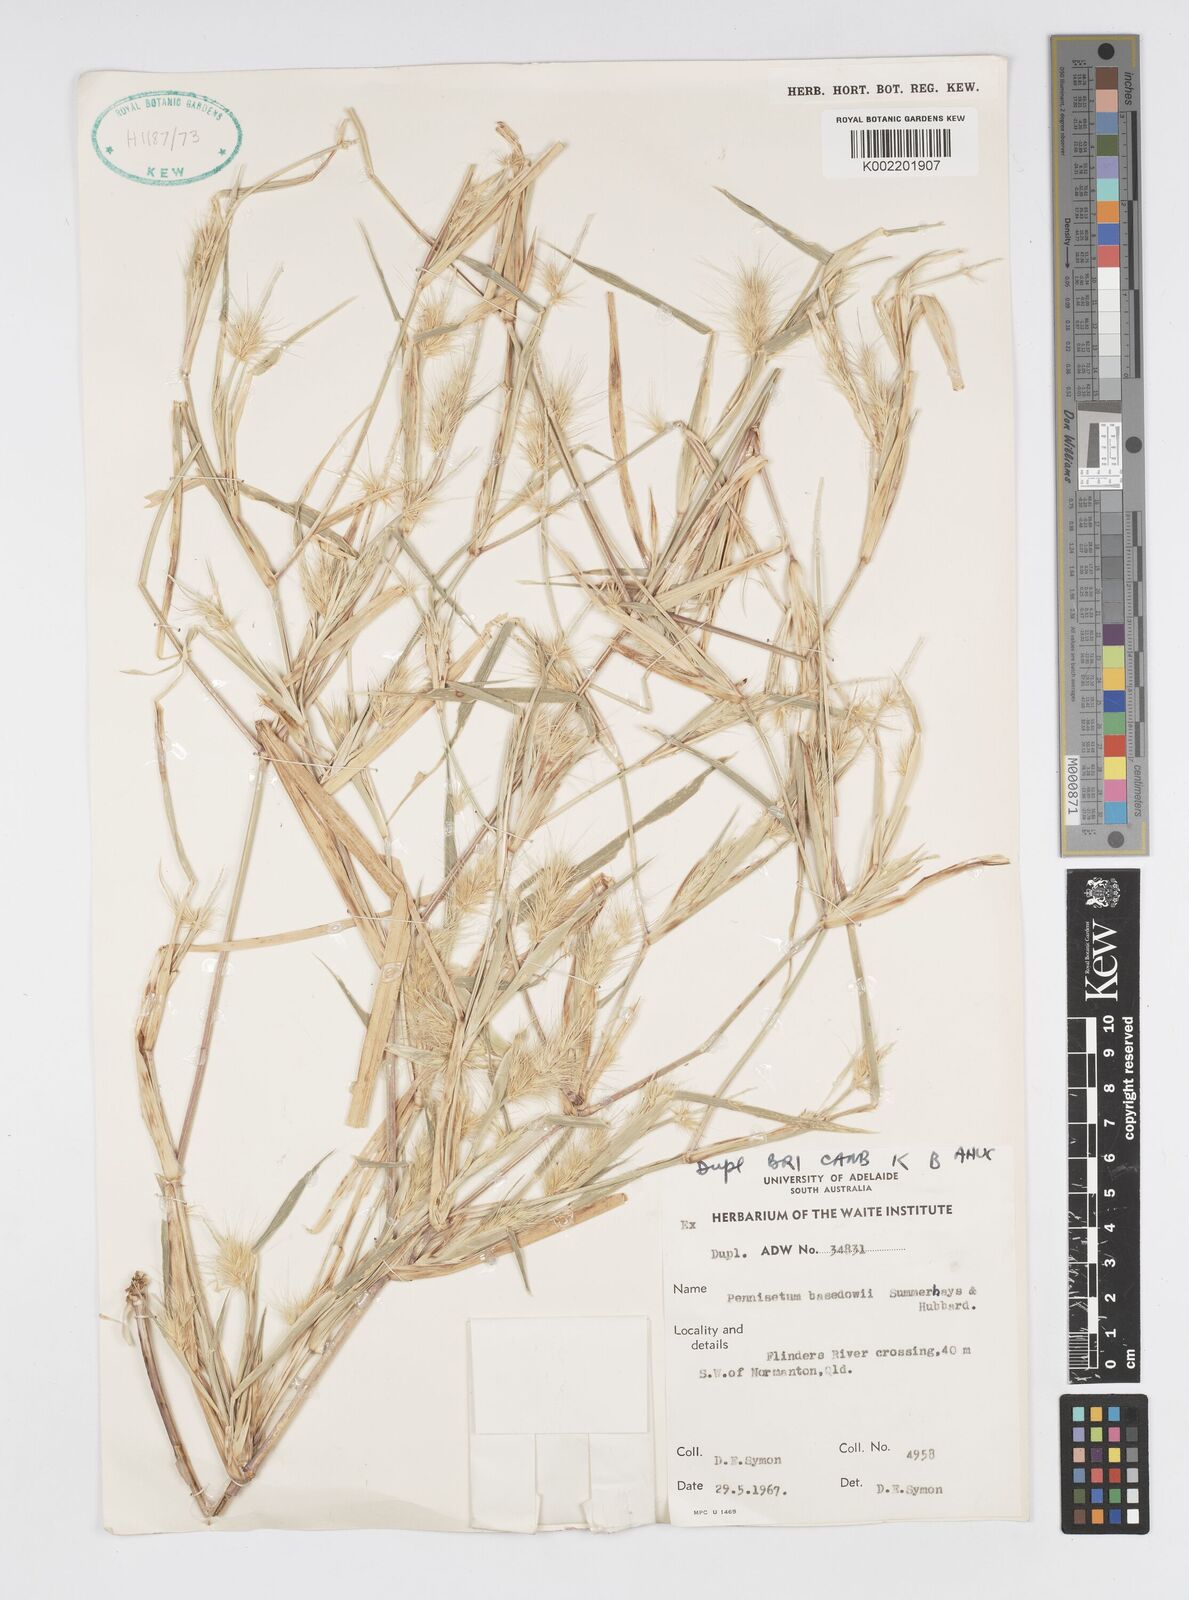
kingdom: Plantae
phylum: Tracheophyta
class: Liliopsida
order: Poales
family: Poaceae
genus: Cenchrus
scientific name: Cenchrus basedowii
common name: Asbestos grass
